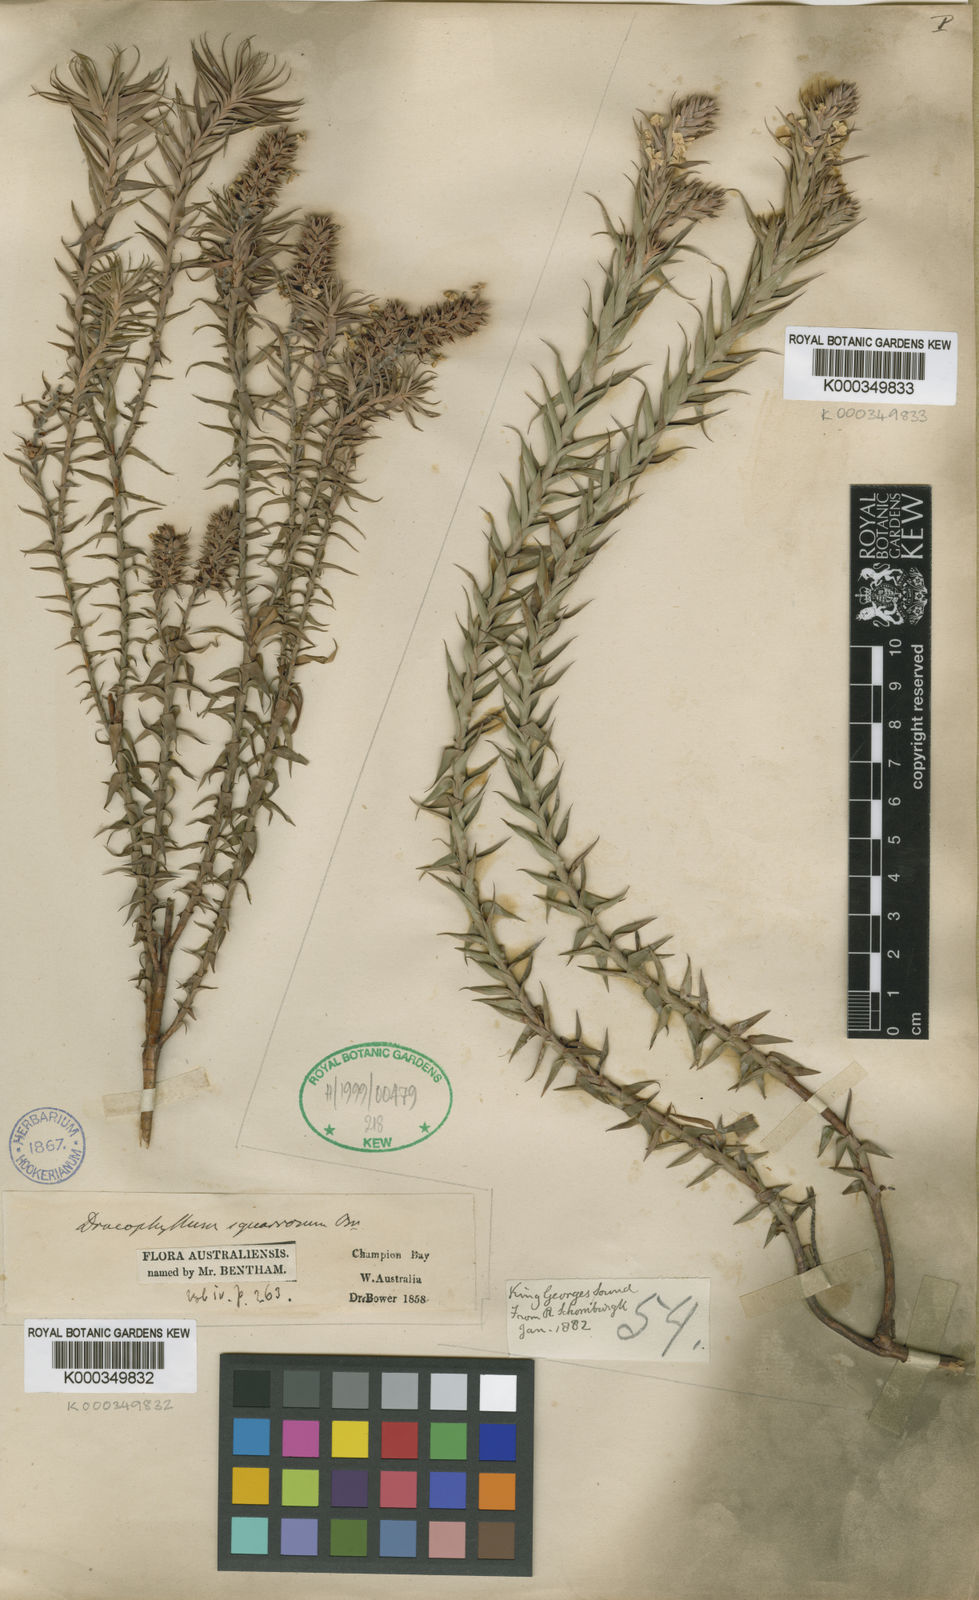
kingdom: Plantae
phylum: Tracheophyta
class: Magnoliopsida
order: Ericales
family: Ericaceae
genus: Sphenotoma
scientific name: Sphenotoma squarrosum
